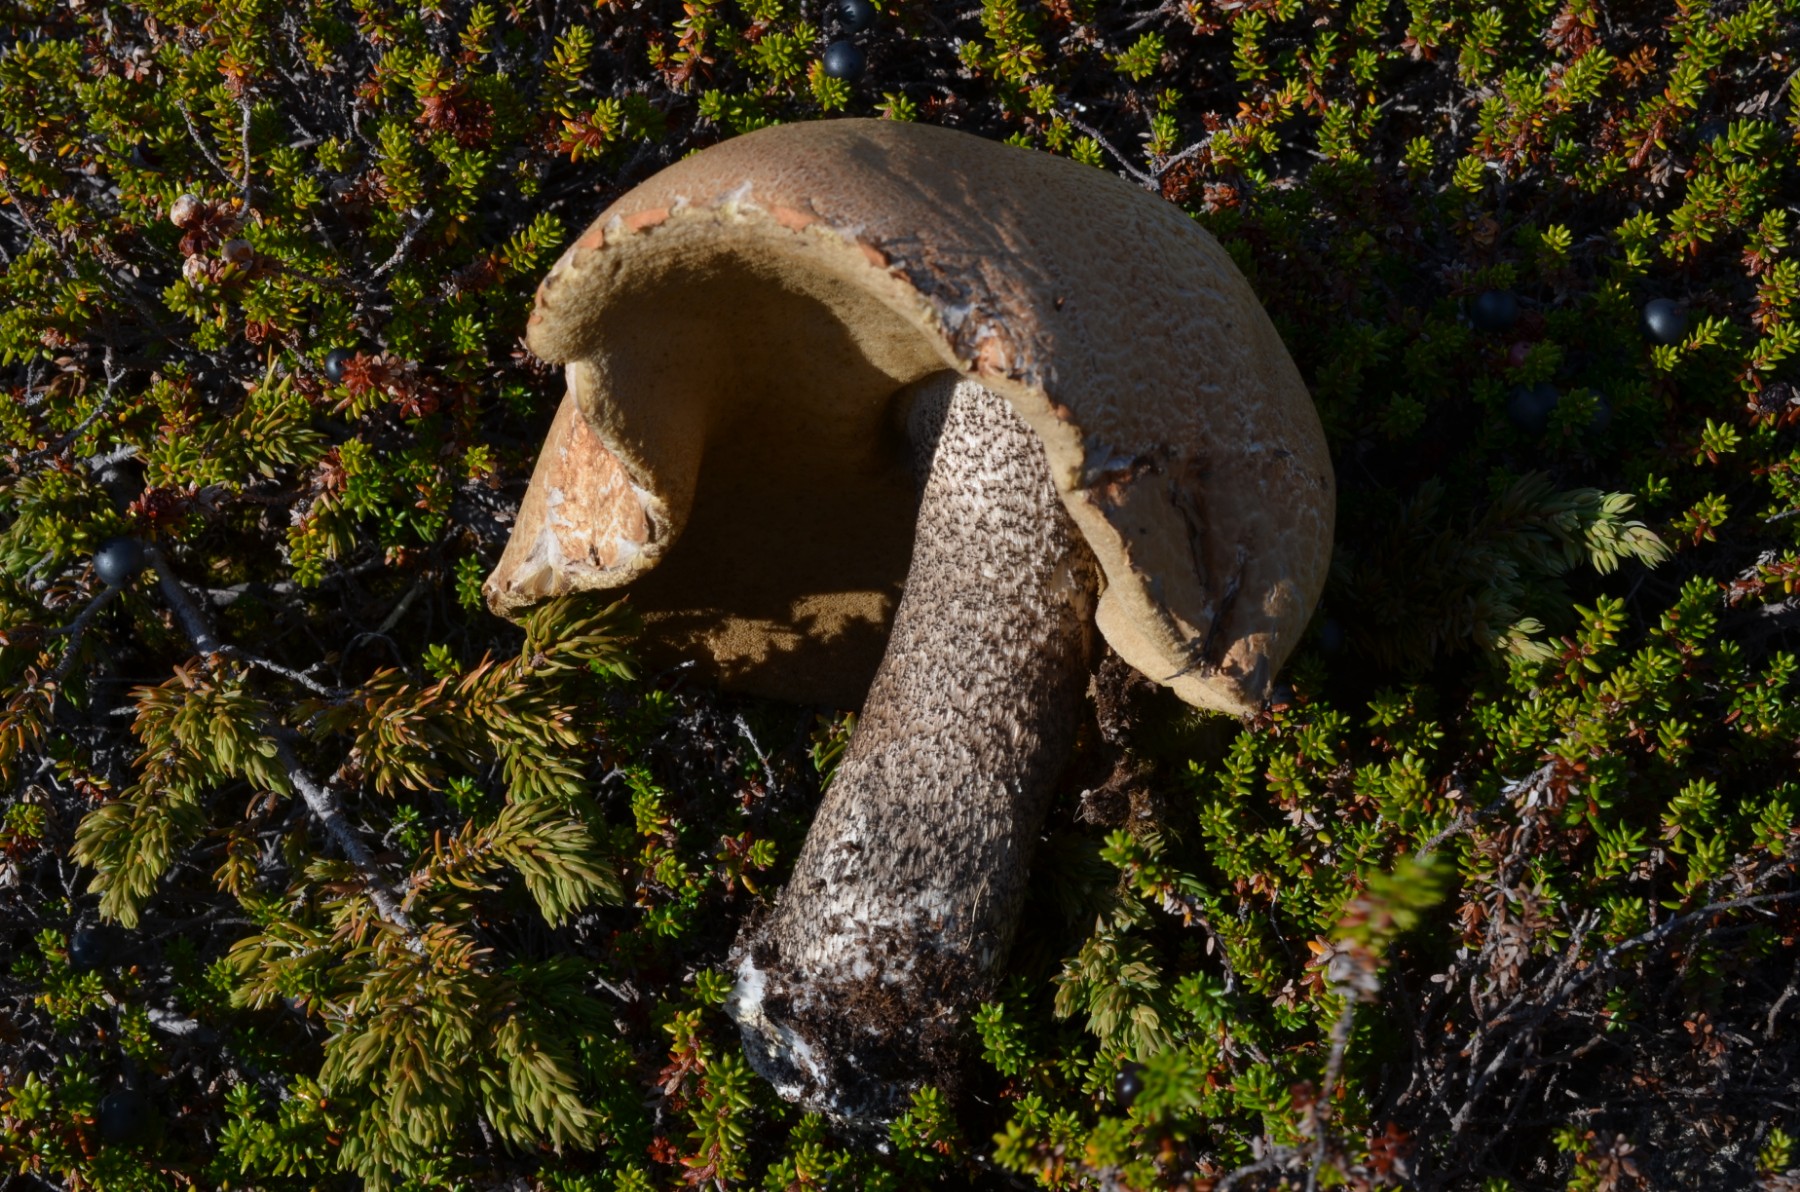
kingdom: Fungi
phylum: Basidiomycota
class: Agaricomycetes
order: Boletales
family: Boletaceae
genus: Leccinum
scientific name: Leccinum versipelle
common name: orange skælrørhat
